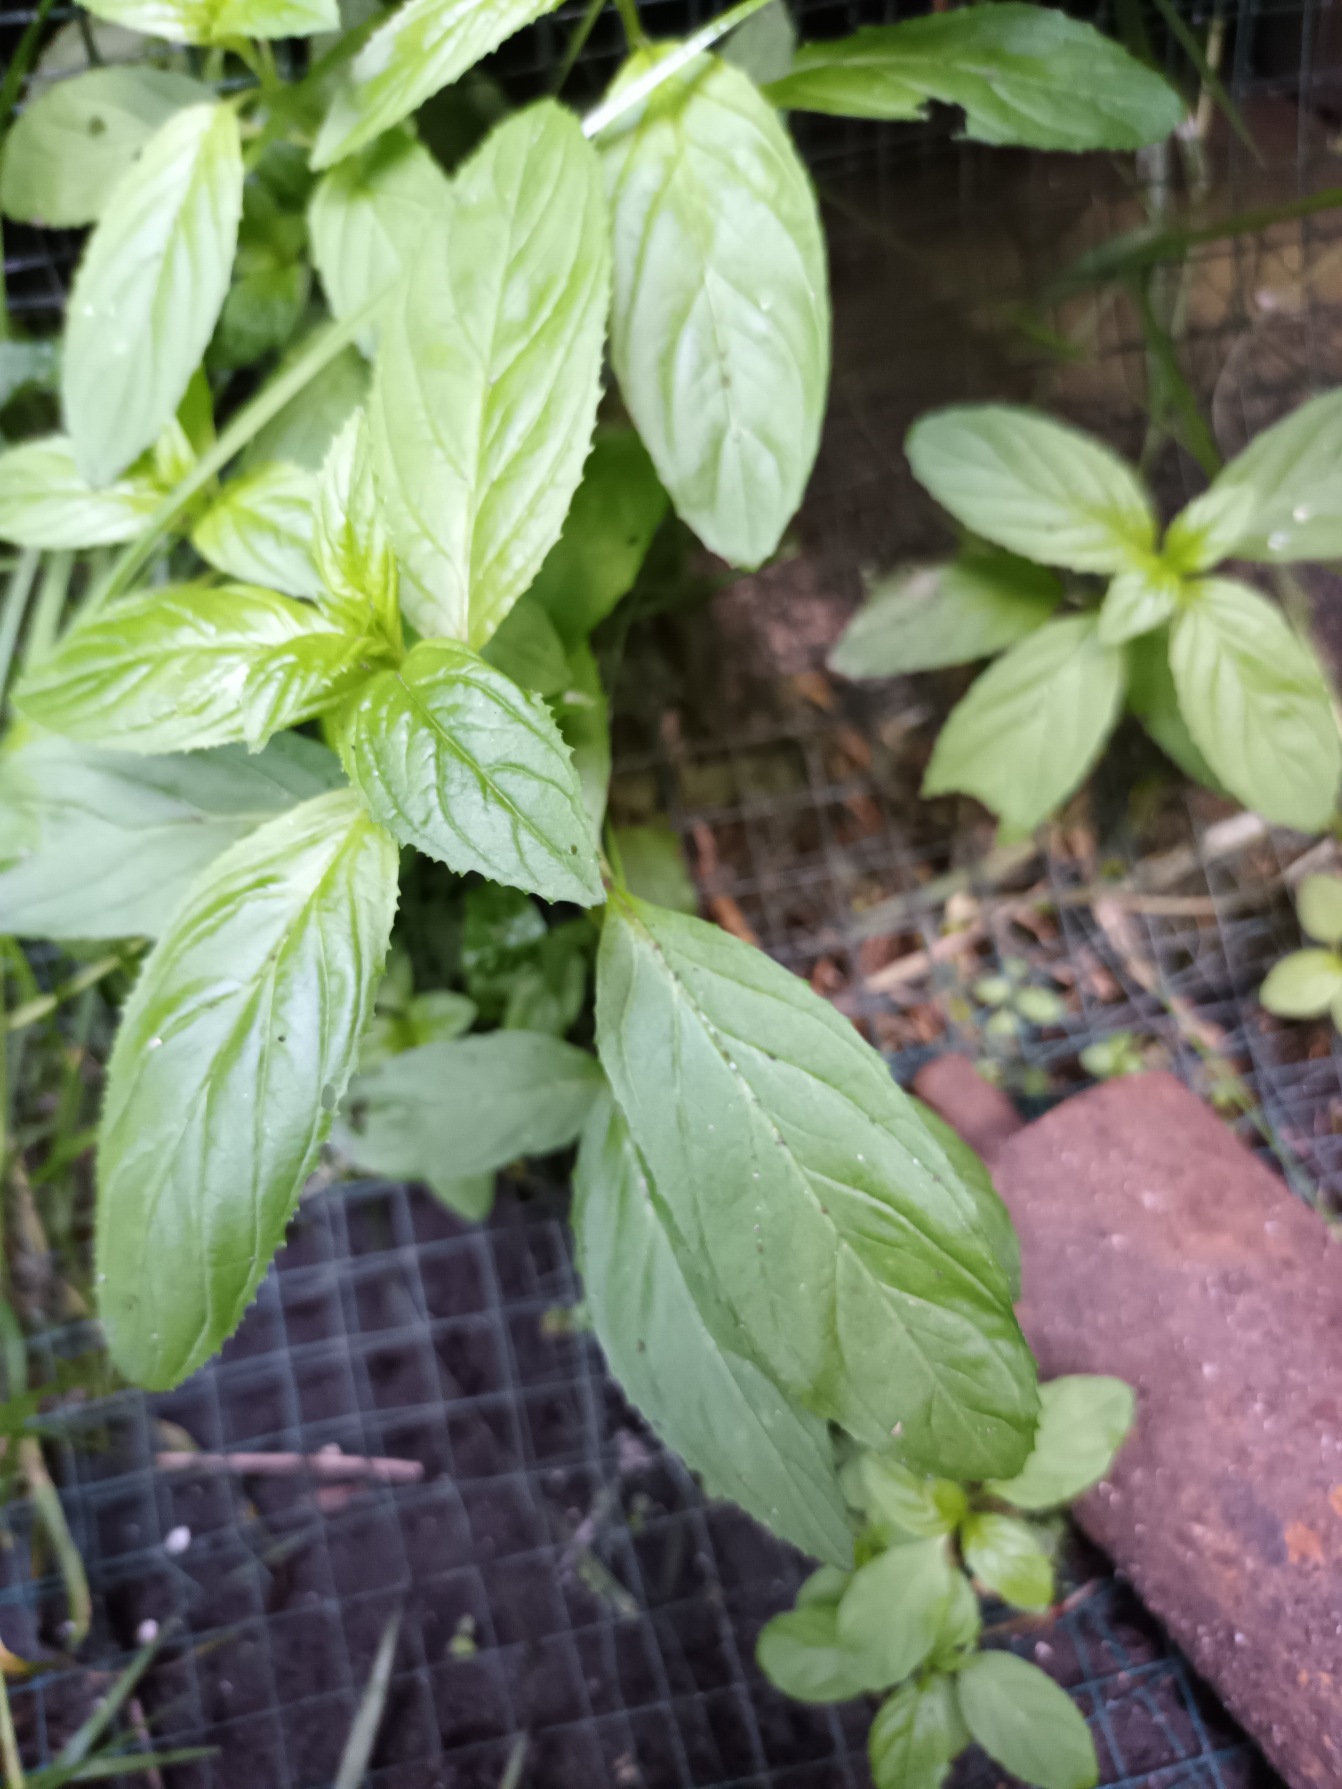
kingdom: Plantae
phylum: Tracheophyta
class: Magnoliopsida
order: Myrtales
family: Onagraceae
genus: Epilobium
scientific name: Epilobium roseum
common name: Rosen-dueurt
